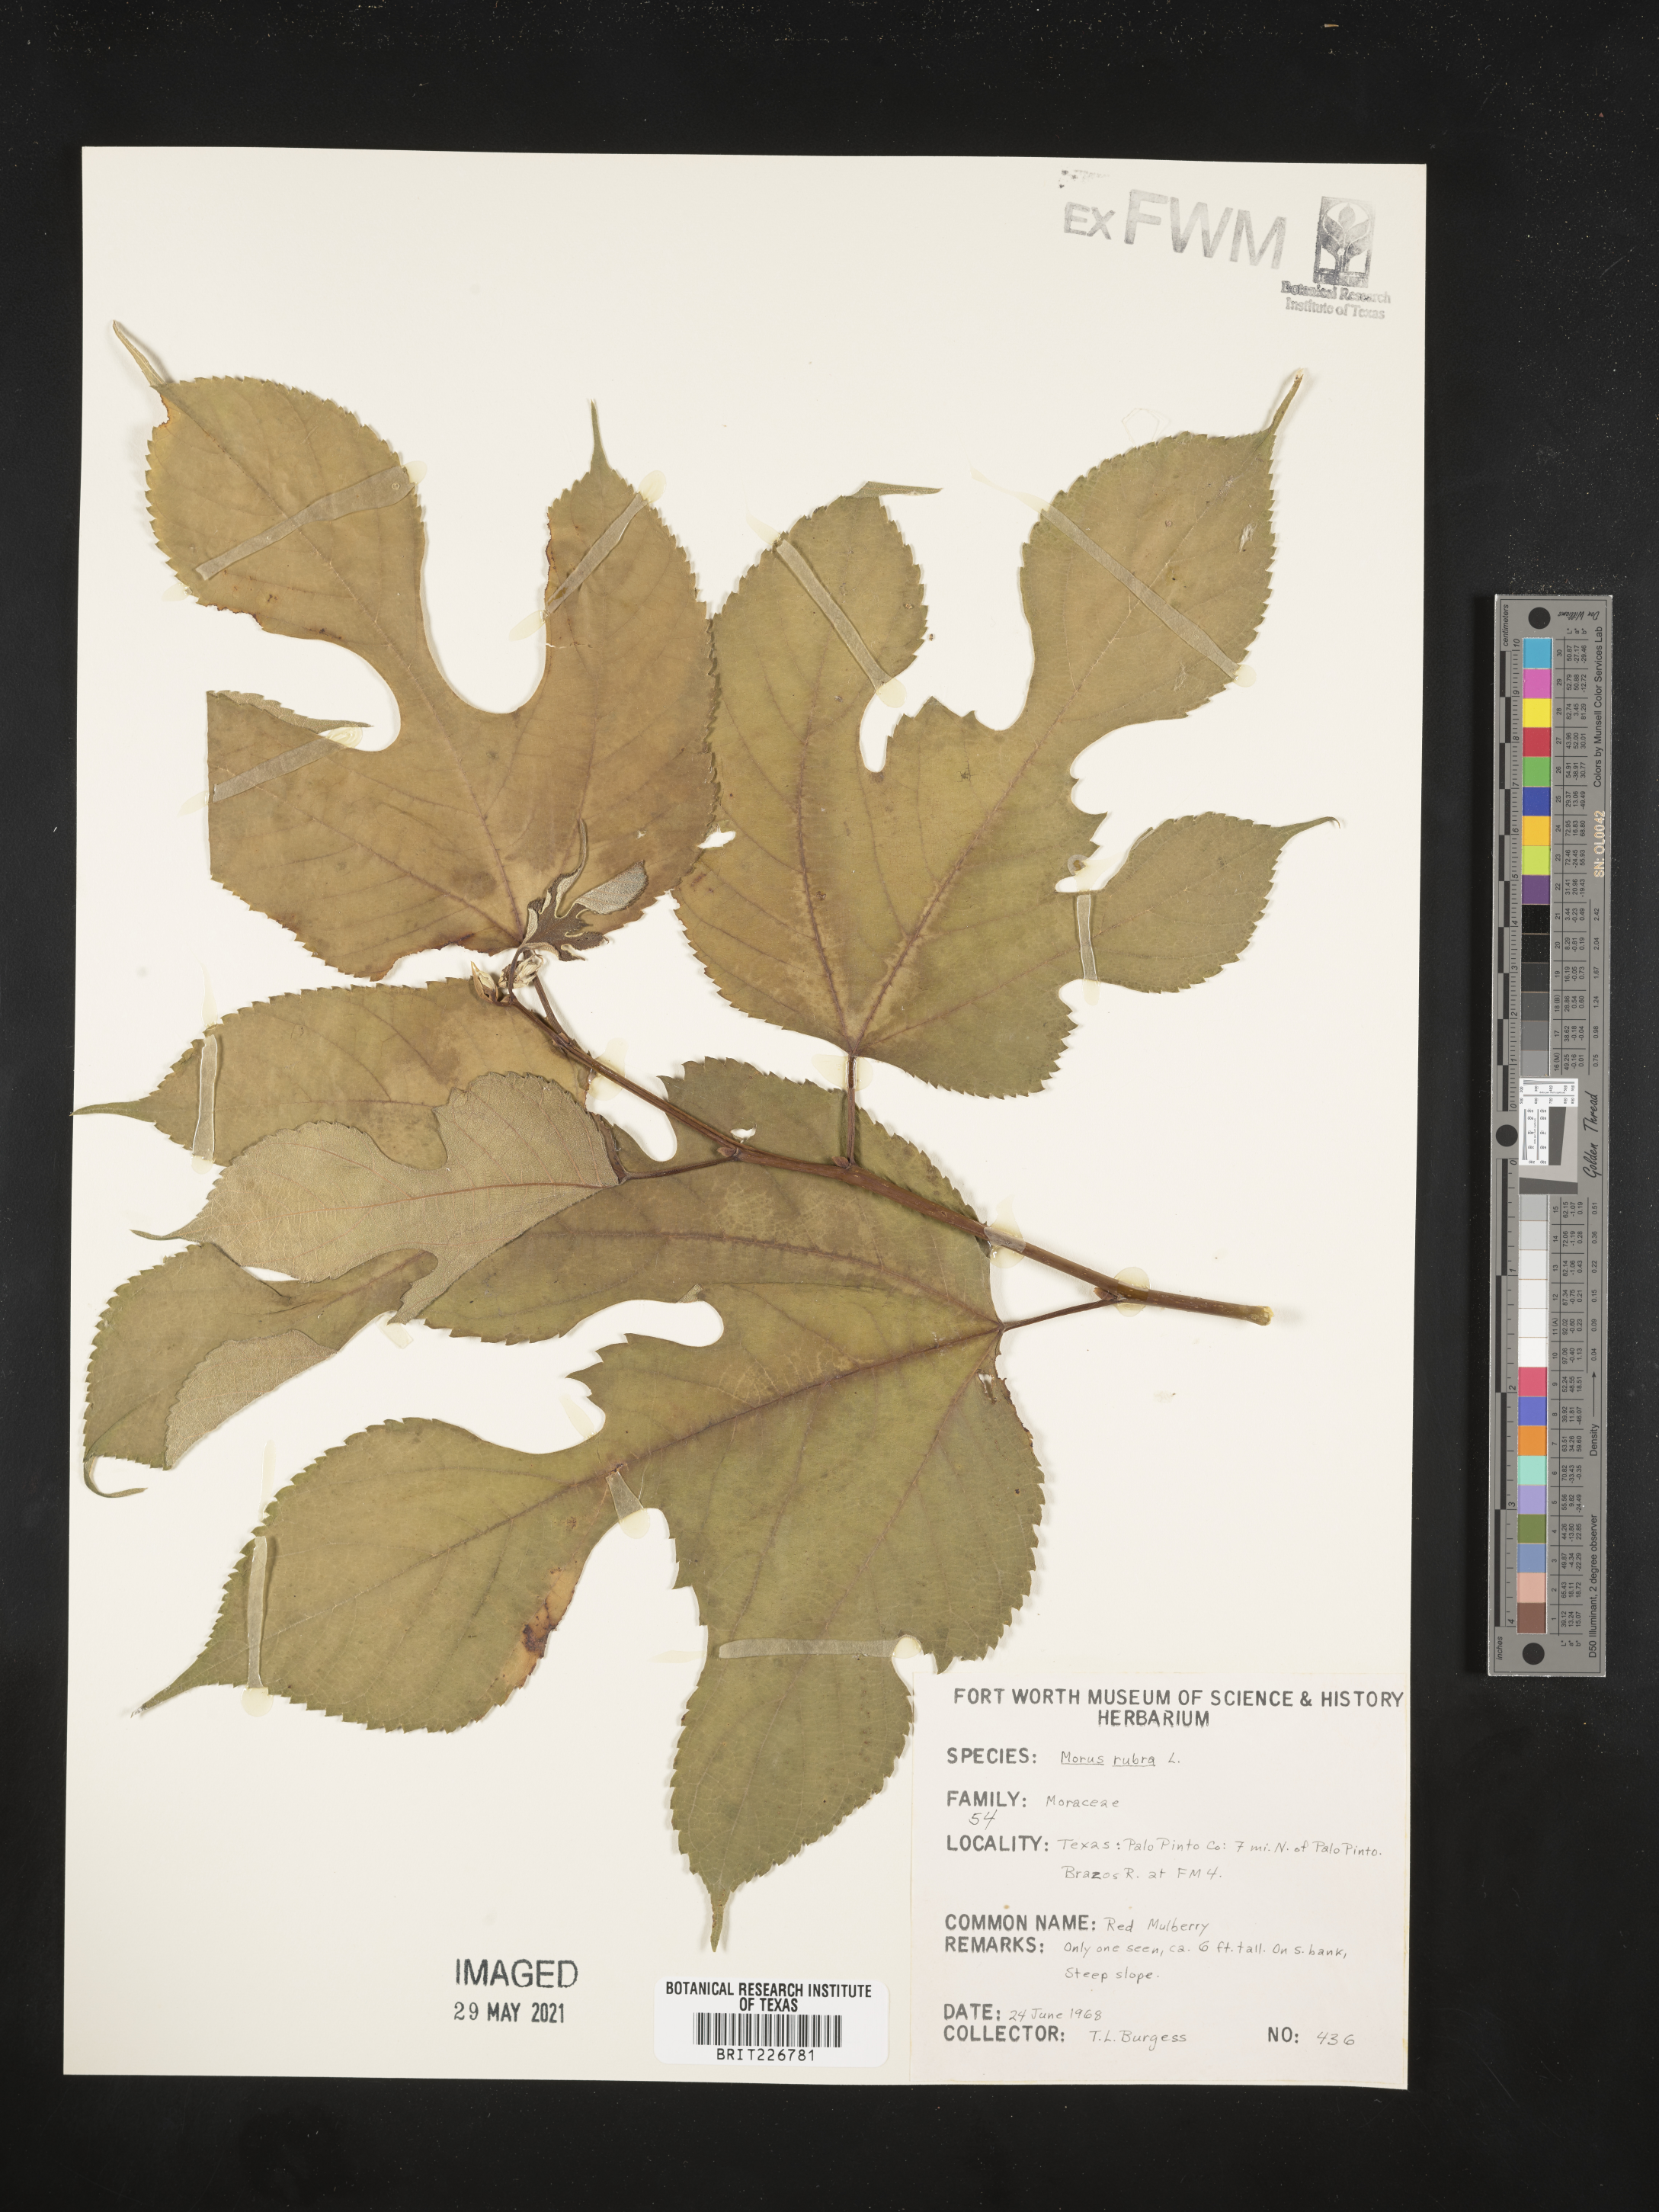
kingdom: Plantae
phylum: Tracheophyta
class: Magnoliopsida
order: Rosales
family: Moraceae
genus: Morus
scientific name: Morus rubra
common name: Red mulberry
